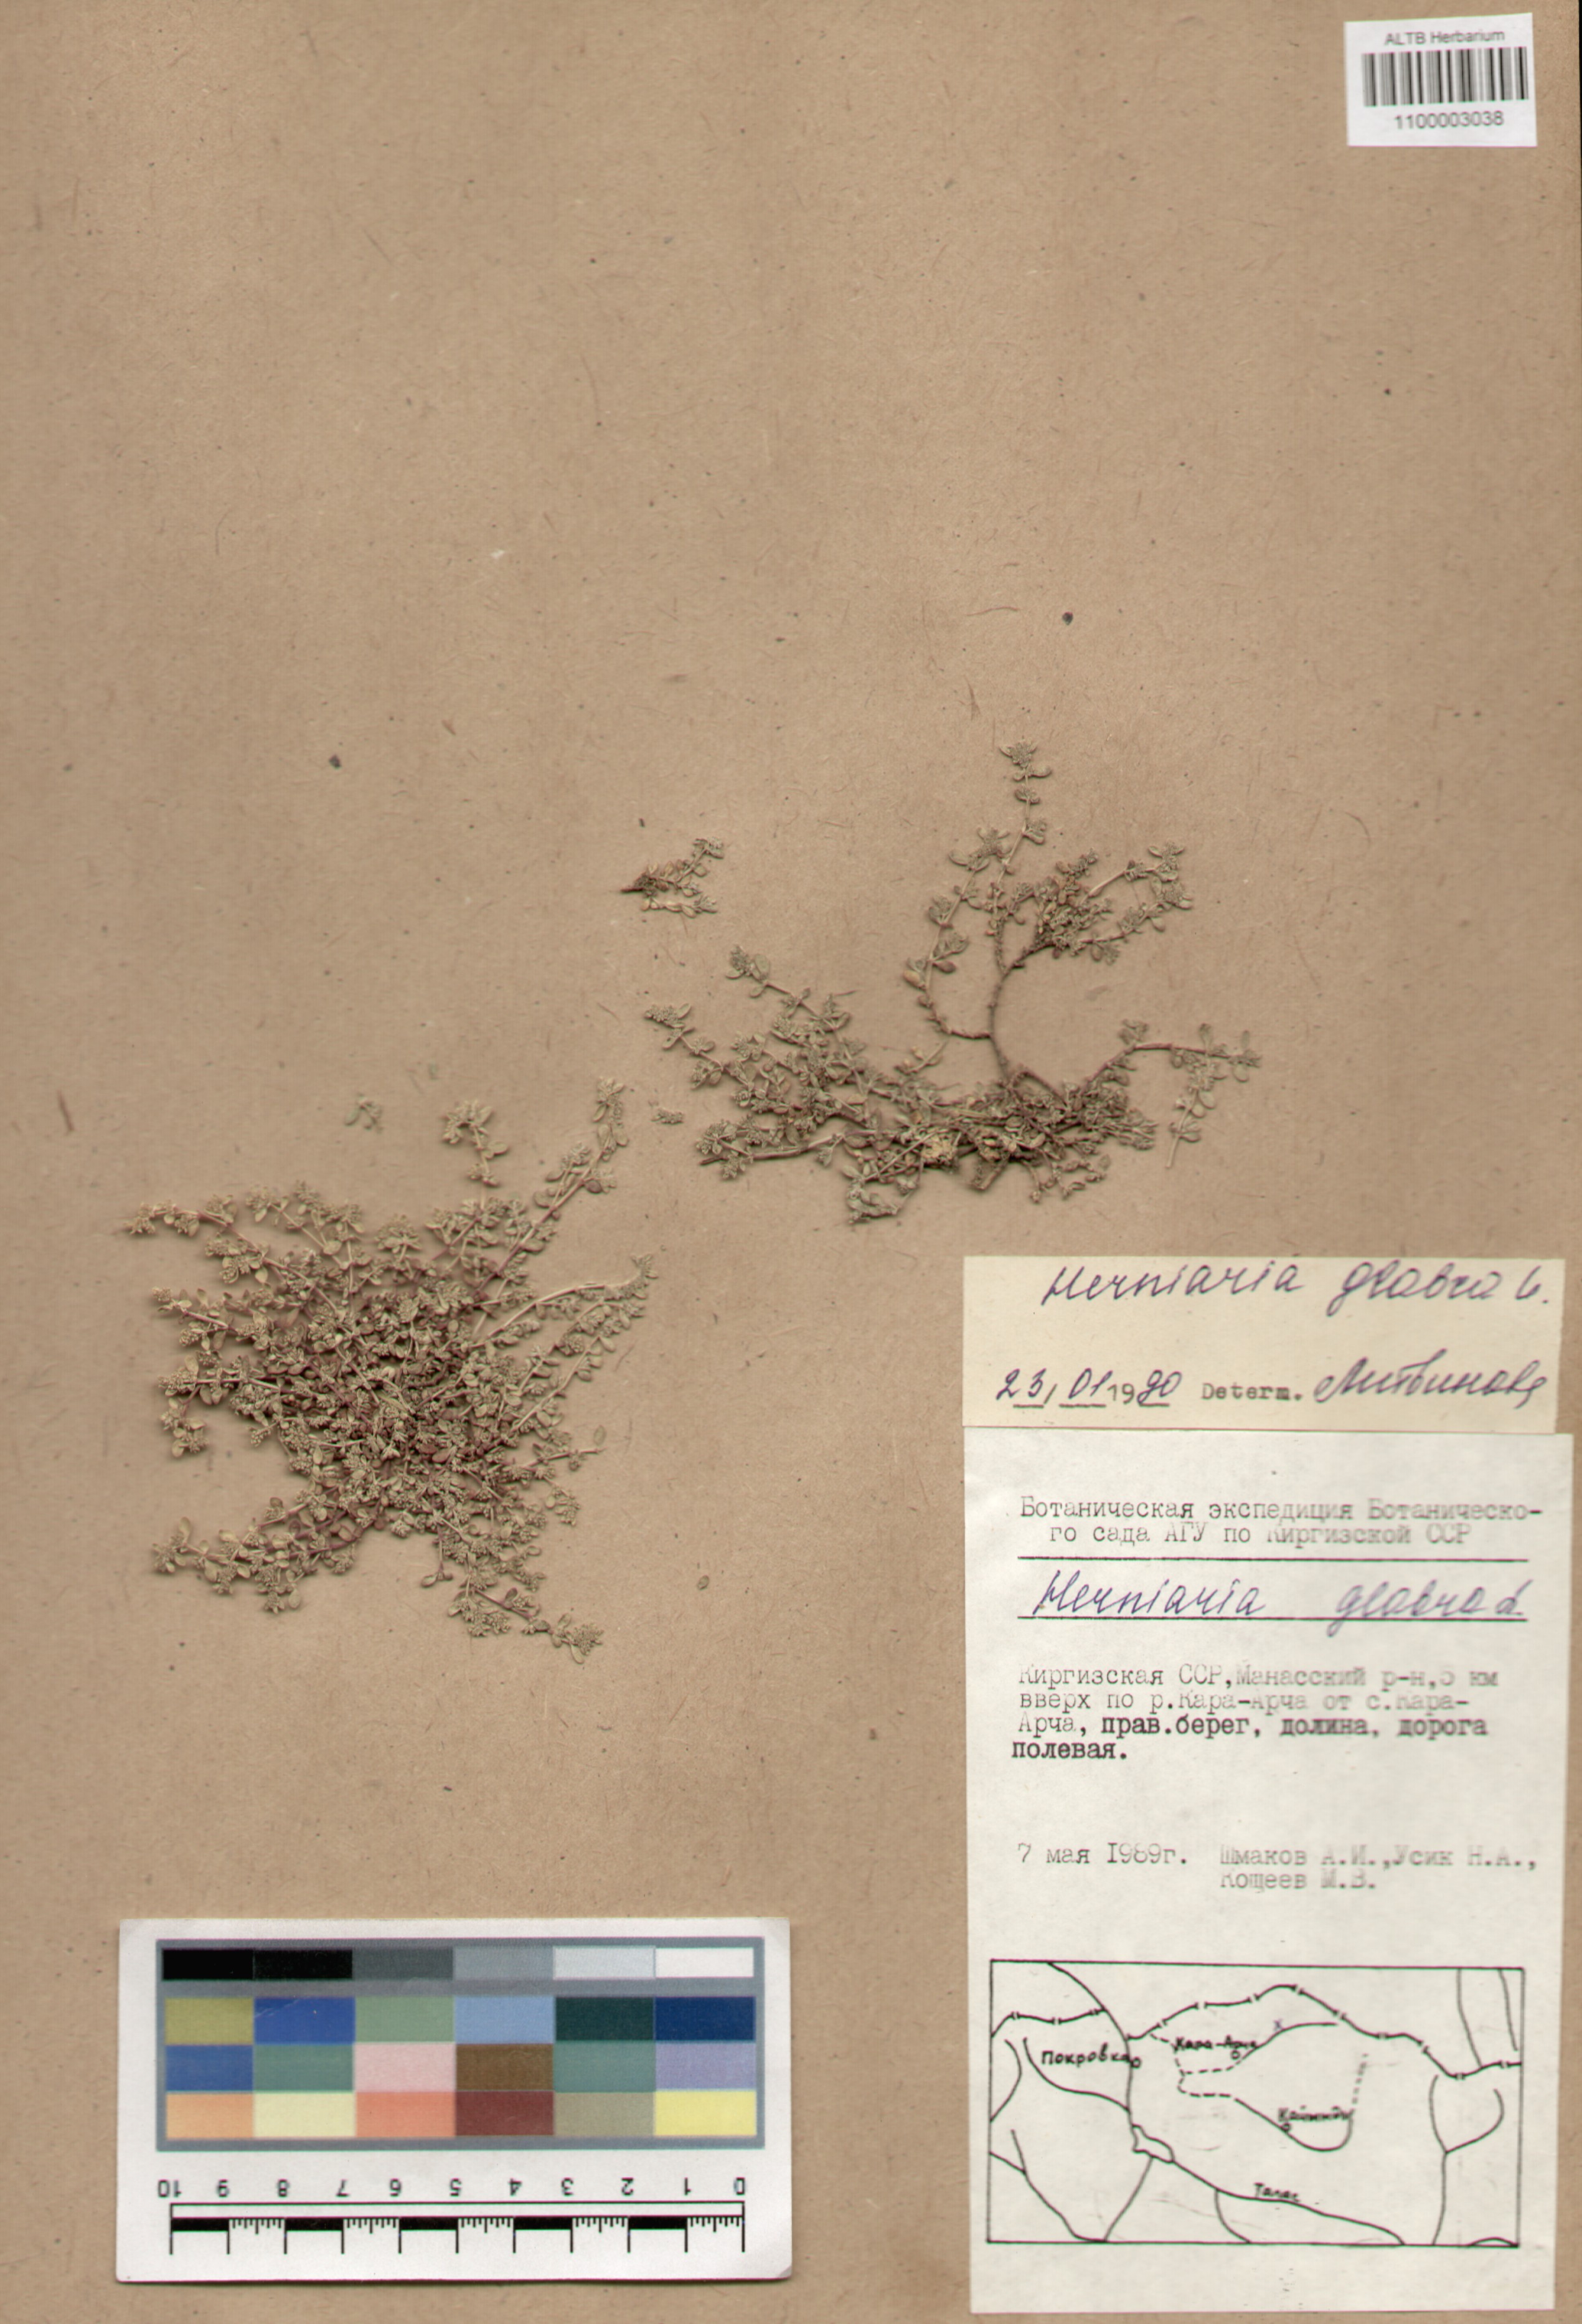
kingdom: Plantae
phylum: Tracheophyta
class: Magnoliopsida
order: Caryophyllales
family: Caryophyllaceae
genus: Herniaria
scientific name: Herniaria glabra
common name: Smooth rupturewort
